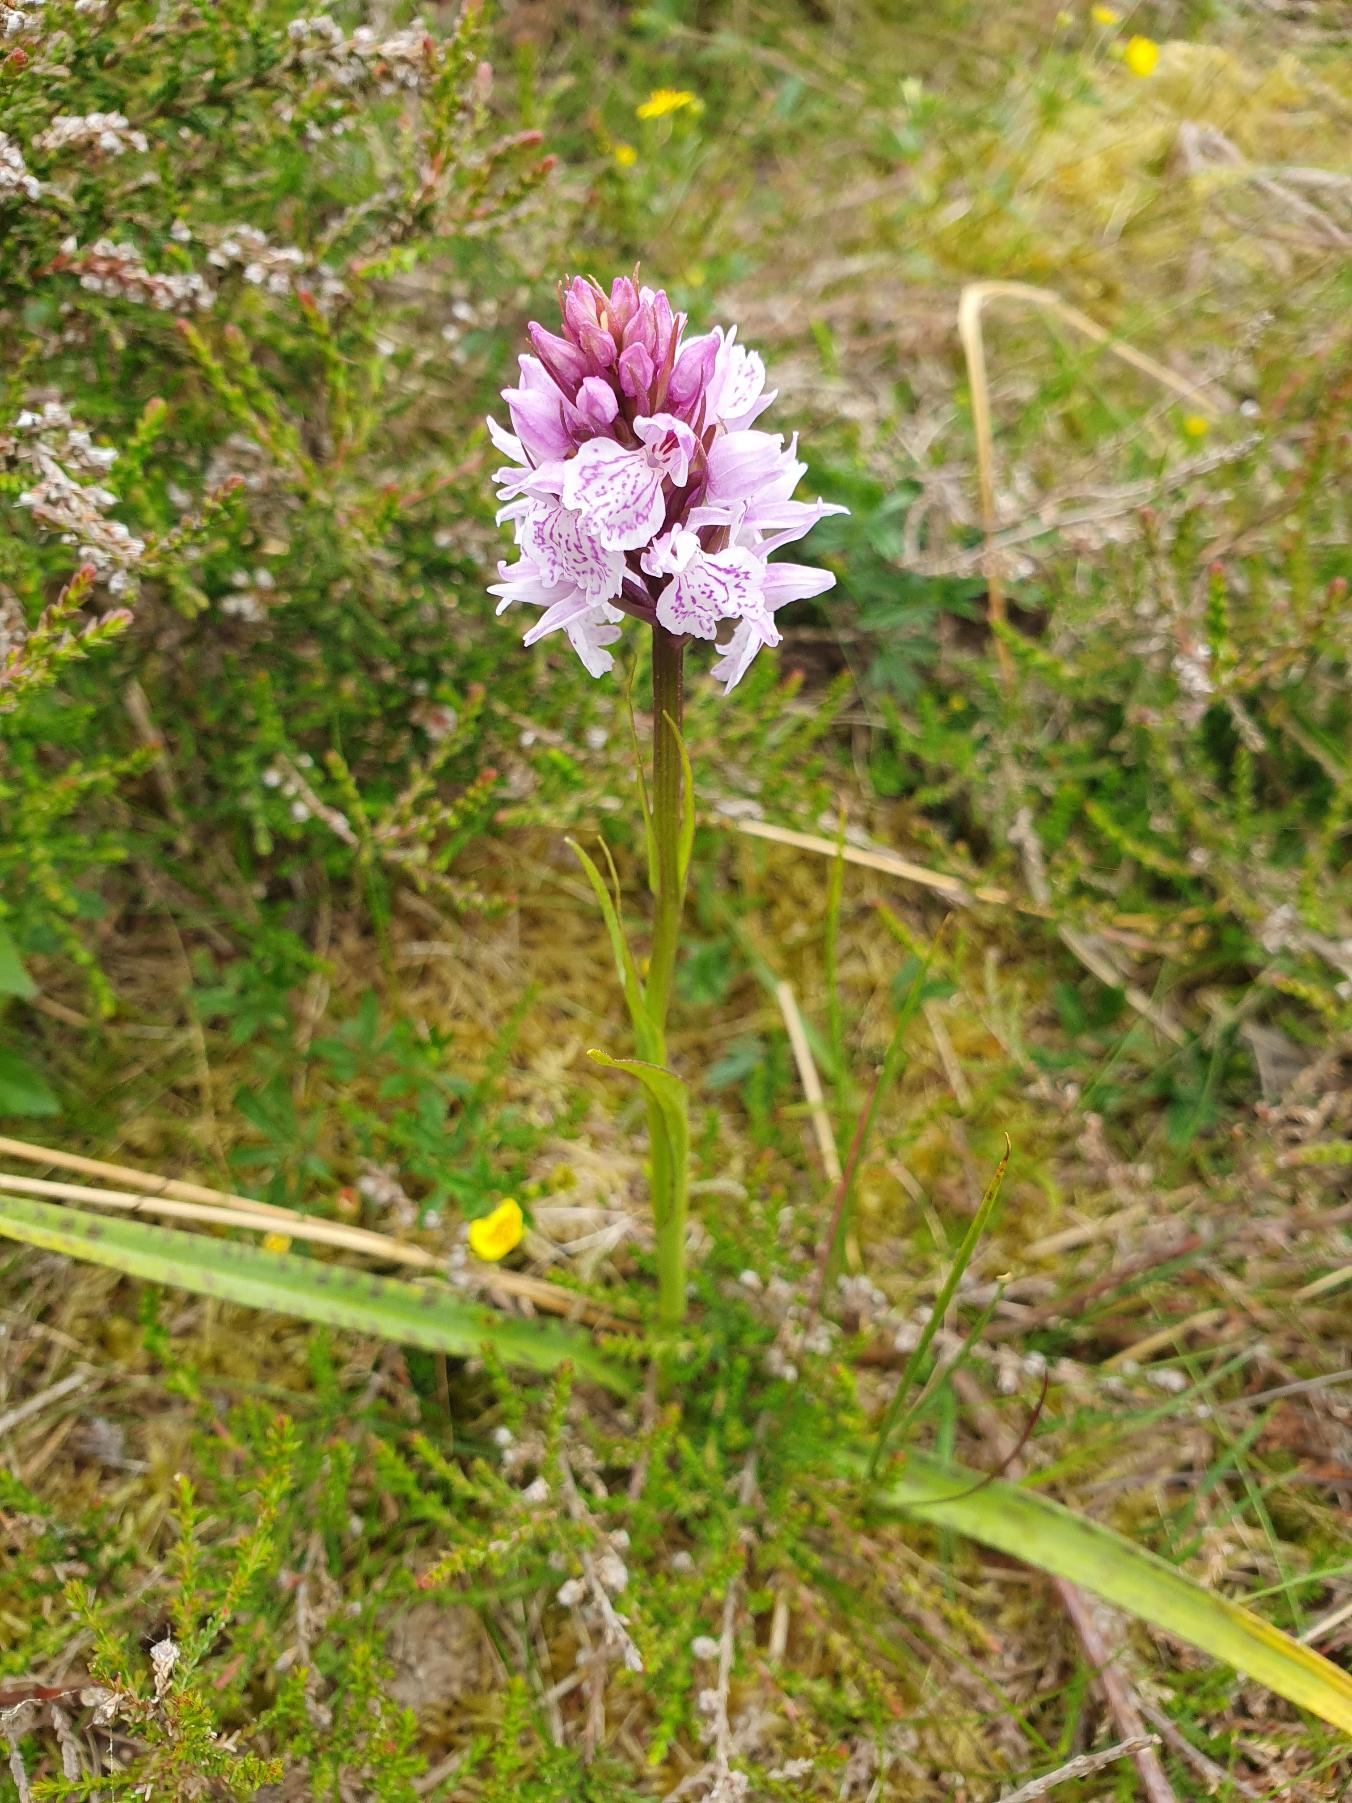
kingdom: Plantae
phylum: Tracheophyta
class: Liliopsida
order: Asparagales
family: Orchidaceae
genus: Dactylorhiza
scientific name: Dactylorhiza maculata
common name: Plettet gøgeurt
